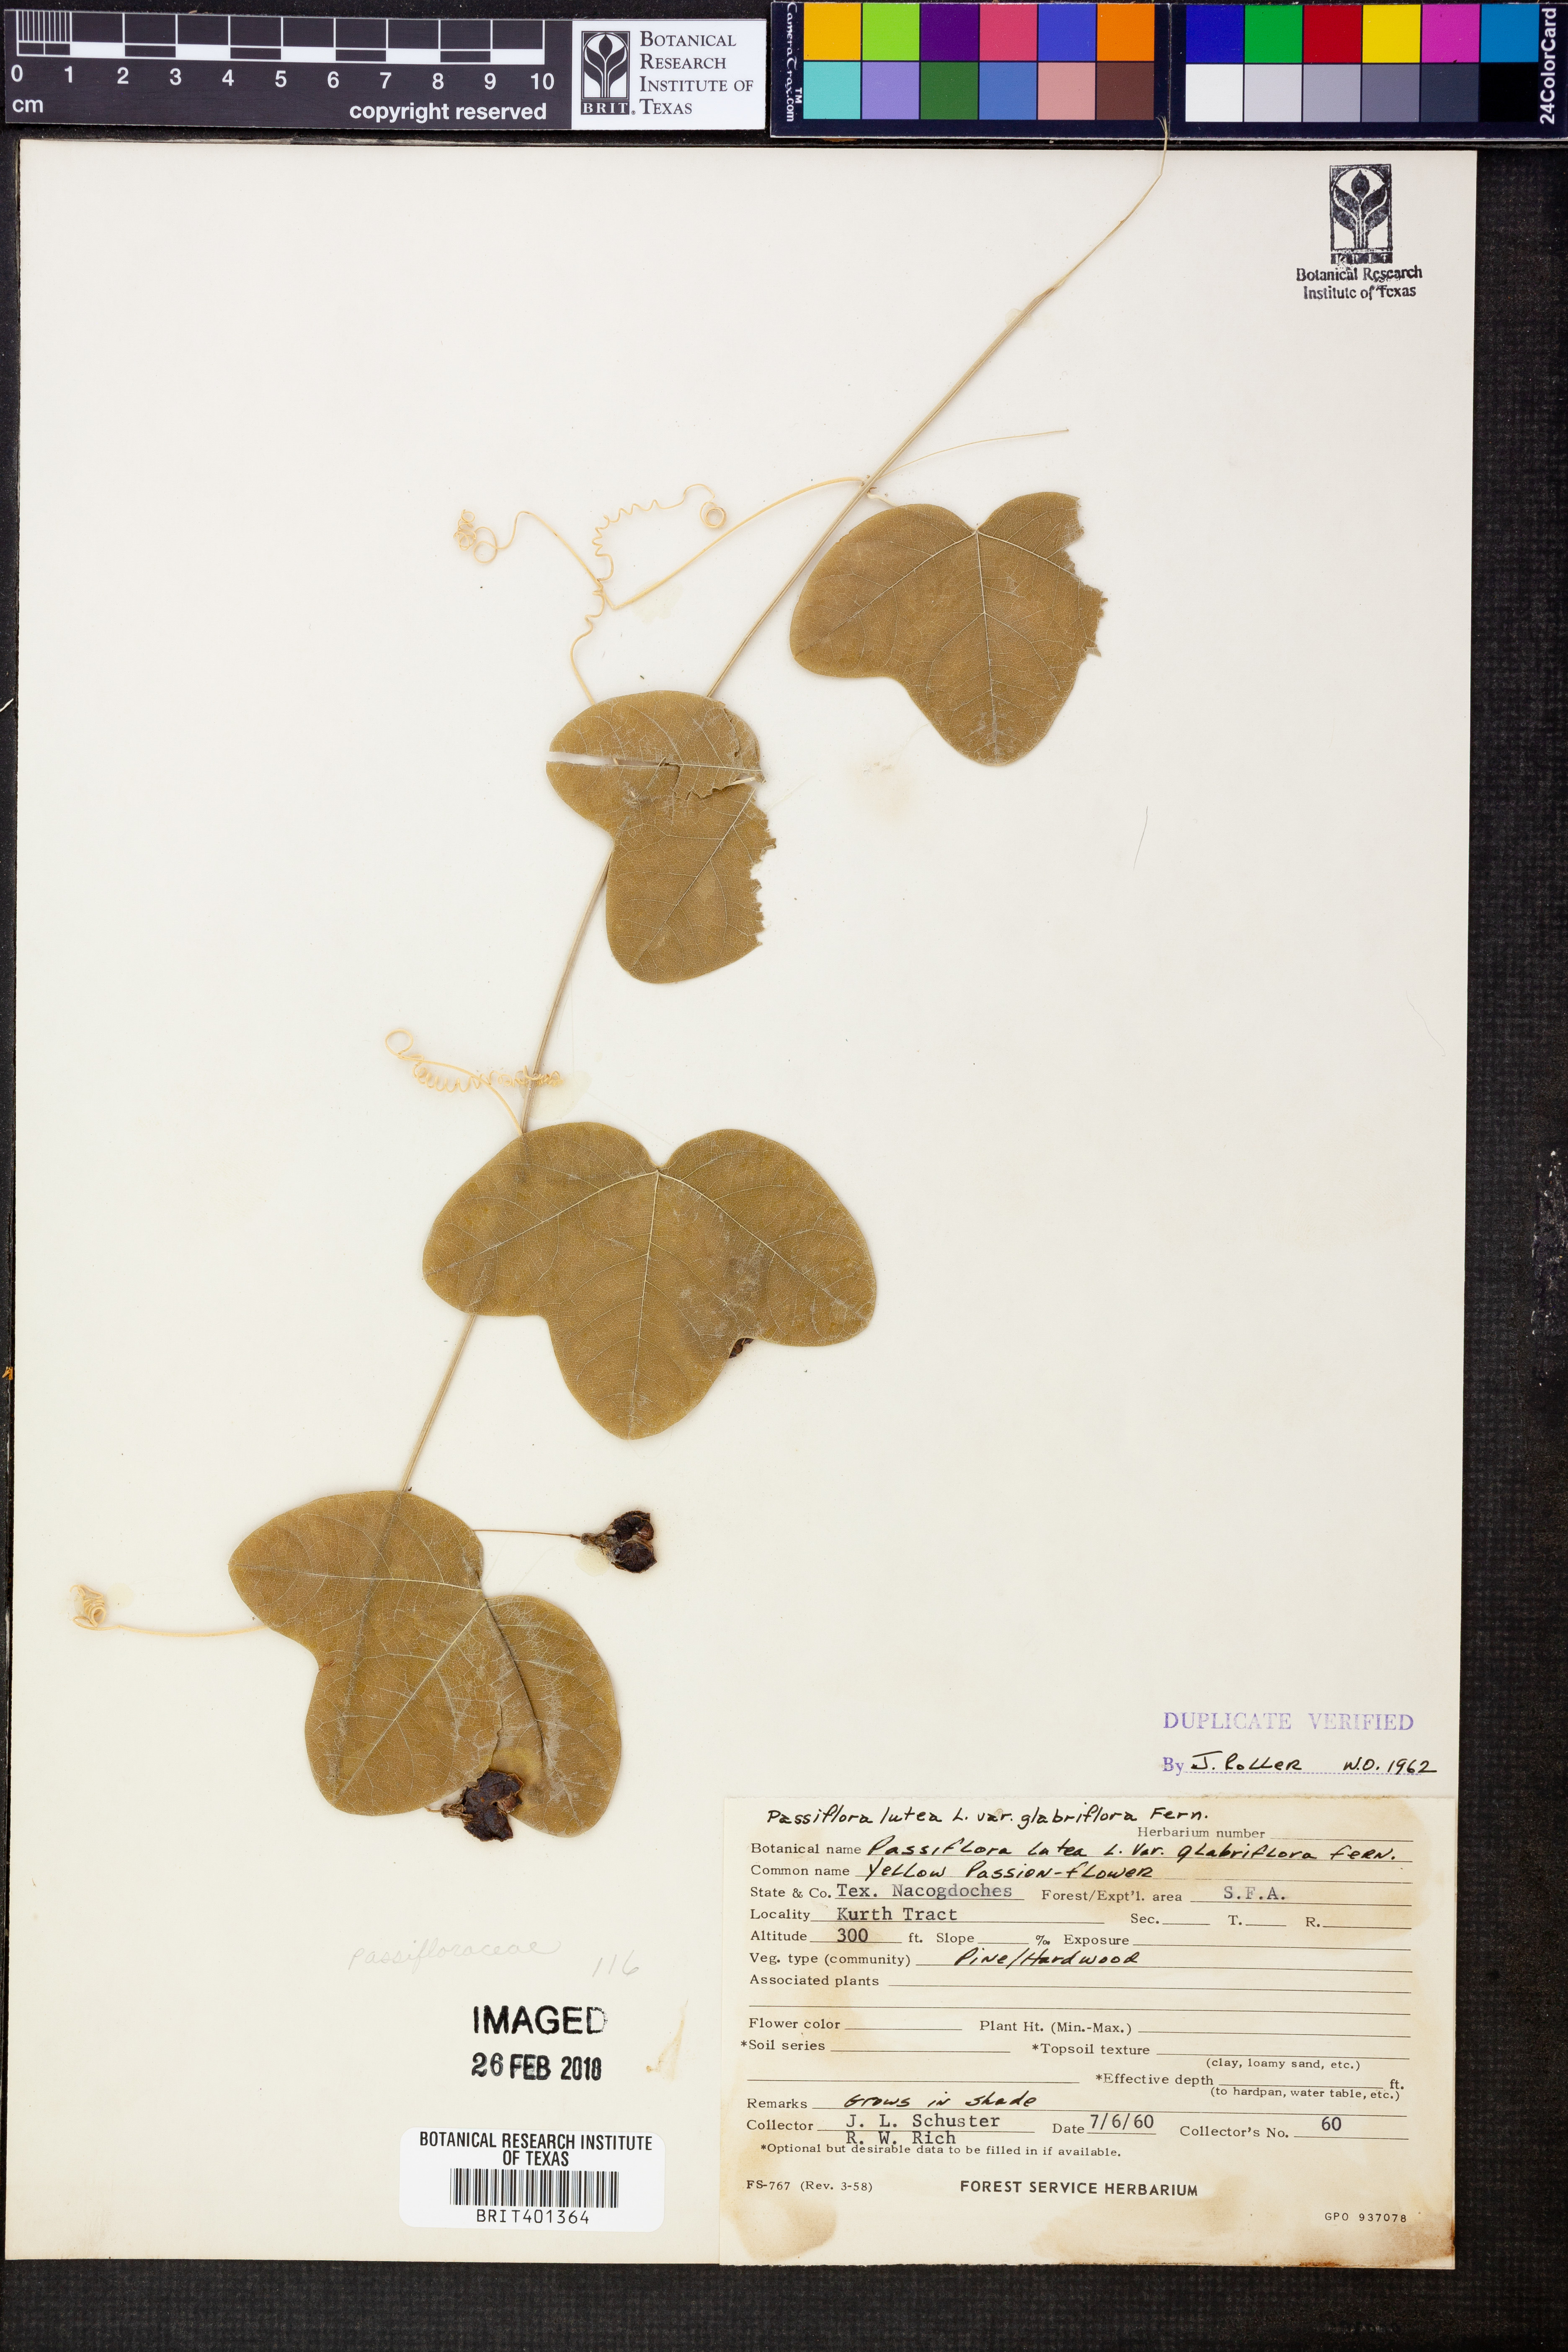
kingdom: Plantae
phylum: Tracheophyta
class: Magnoliopsida
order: Malpighiales
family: Passifloraceae
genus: Passiflora
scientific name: Passiflora lutea
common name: Yellow passionflower
